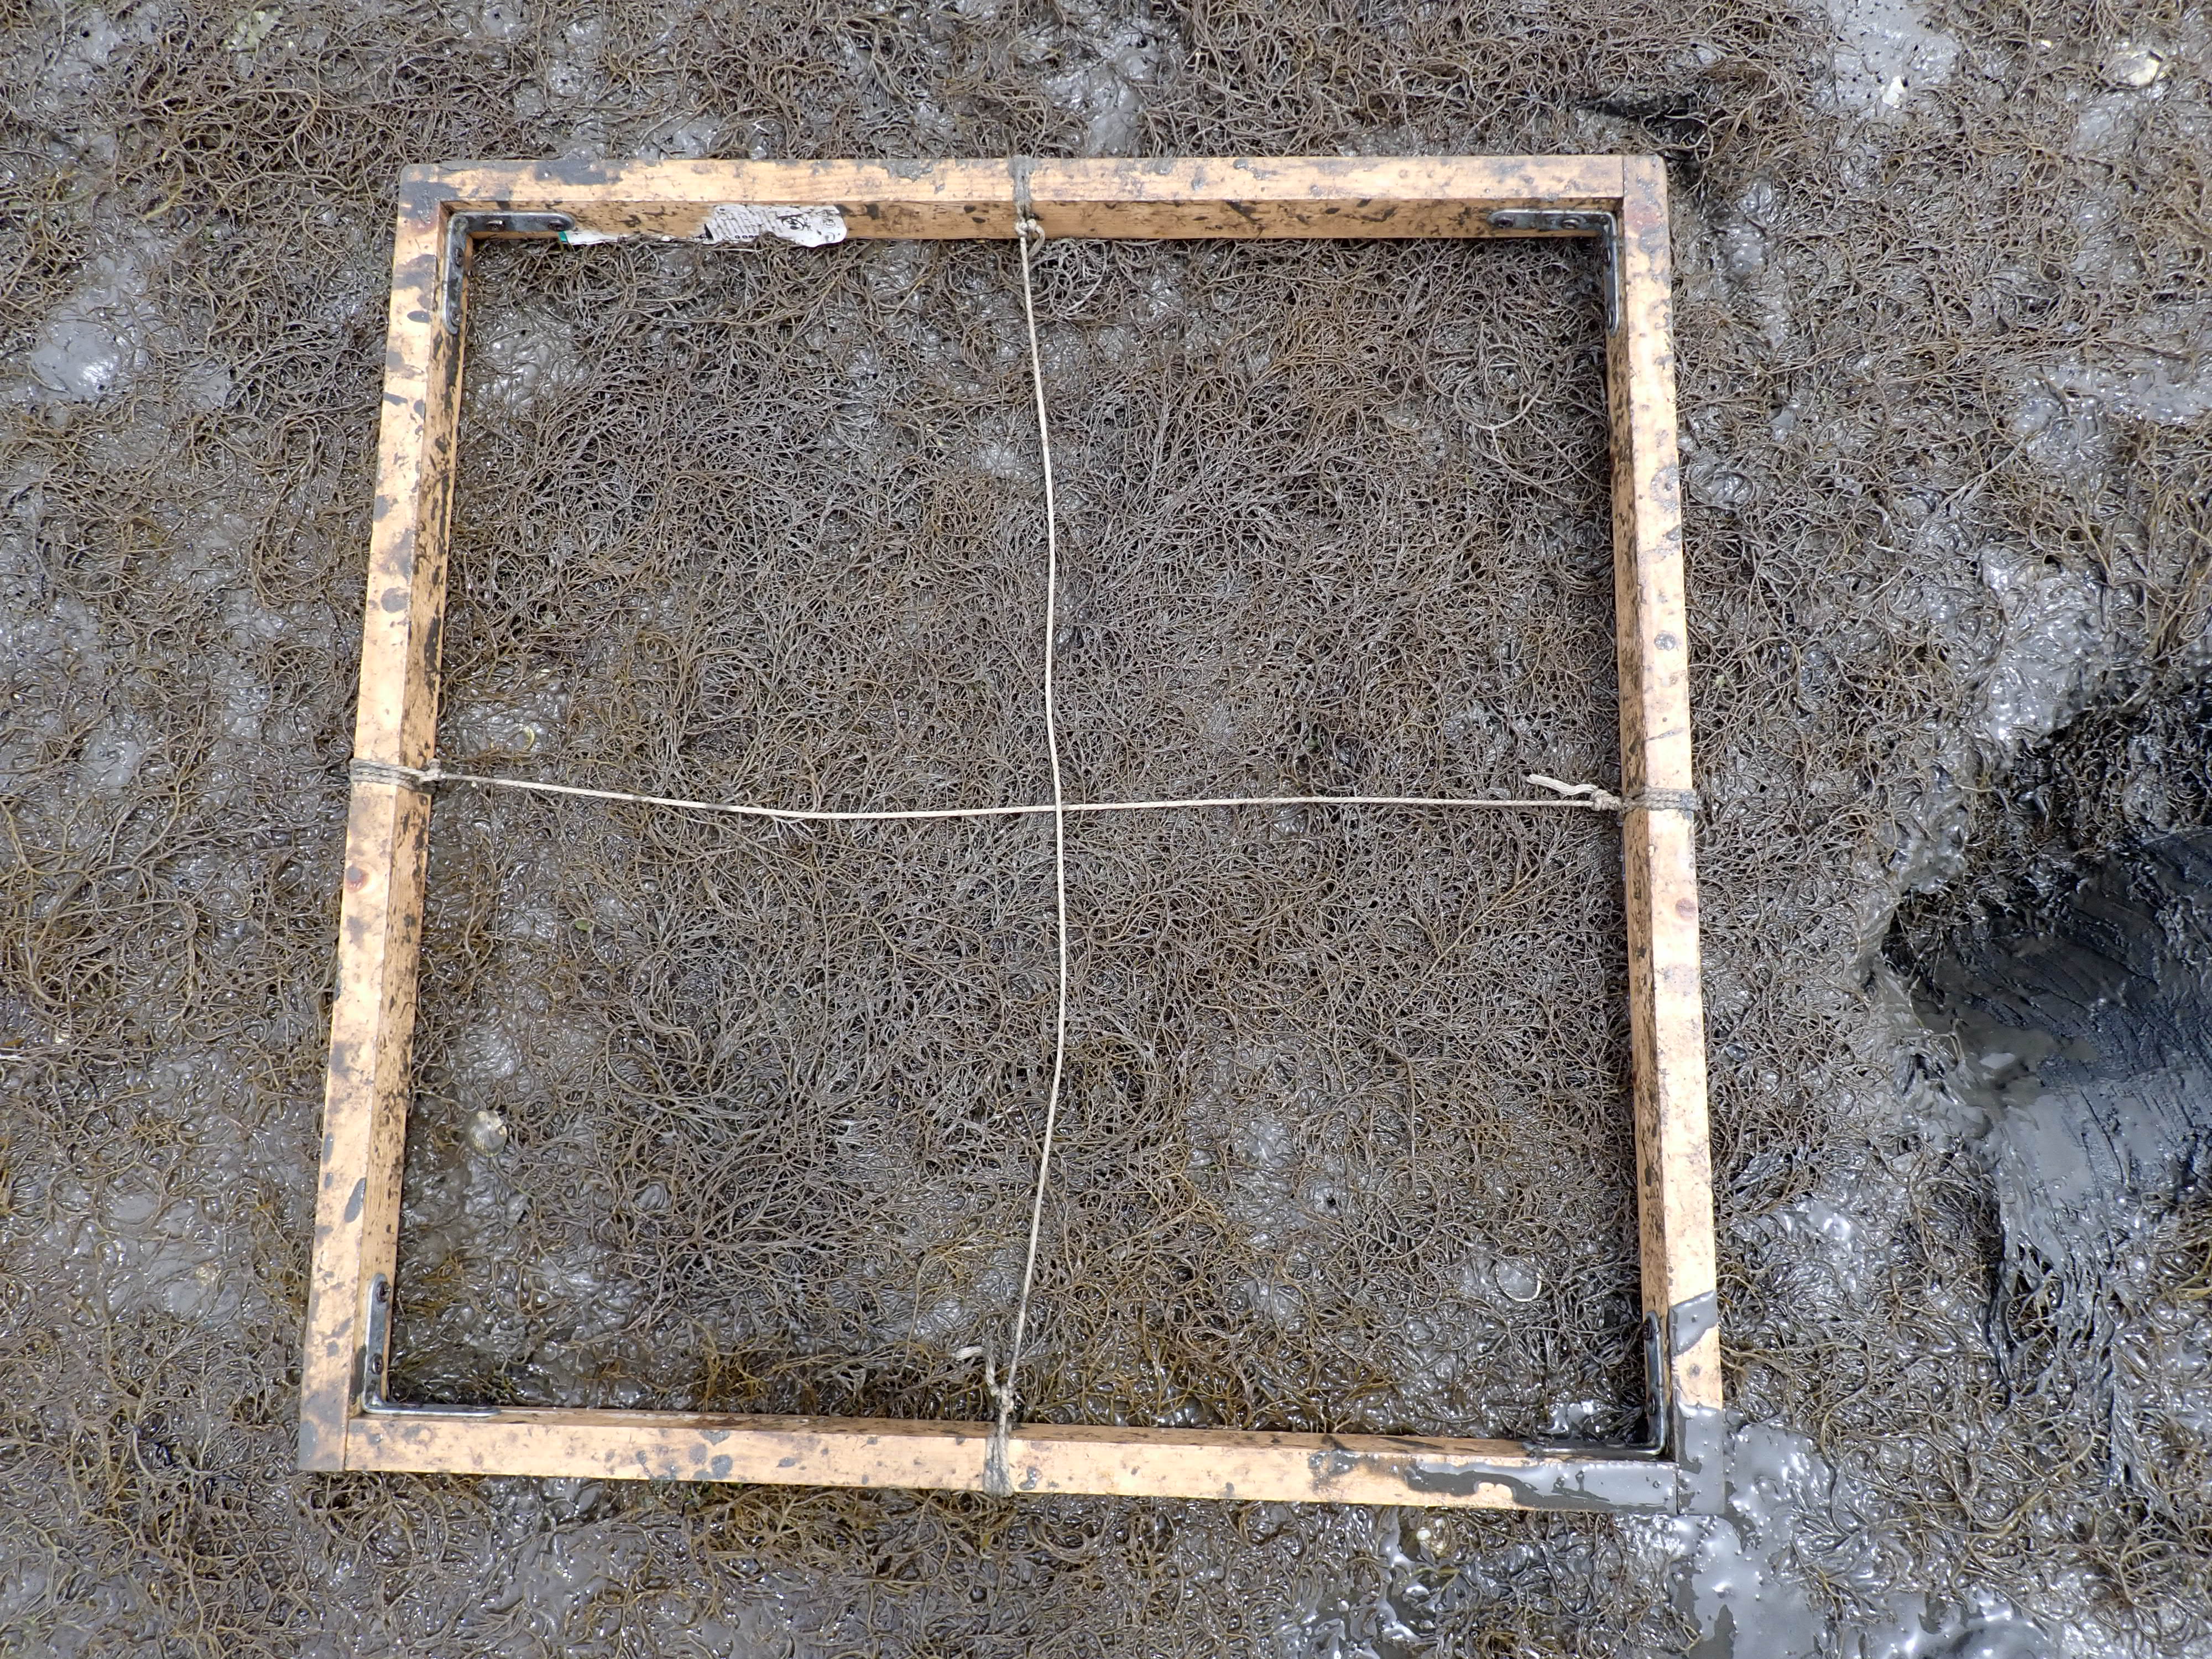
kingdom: Plantae
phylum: Rhodophyta
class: Florideophyceae
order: Gracilariales
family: Gracilariaceae
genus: Gracilaria
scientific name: Gracilaria vermiculophylla
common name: Algae
